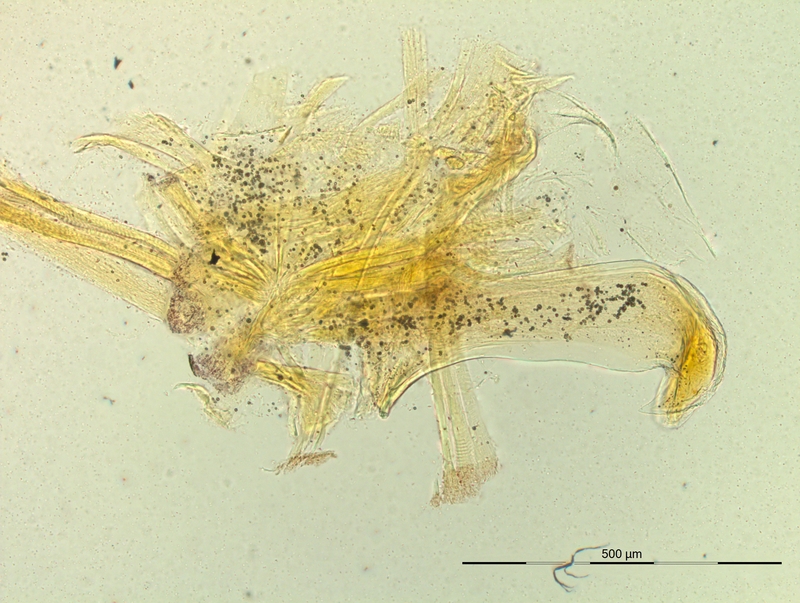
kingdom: Animalia
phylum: Arthropoda
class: Diplopoda
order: Chordeumatida
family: Craspedosomatidae
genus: Pyrgocyphosoma
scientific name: Pyrgocyphosoma bidentatum
